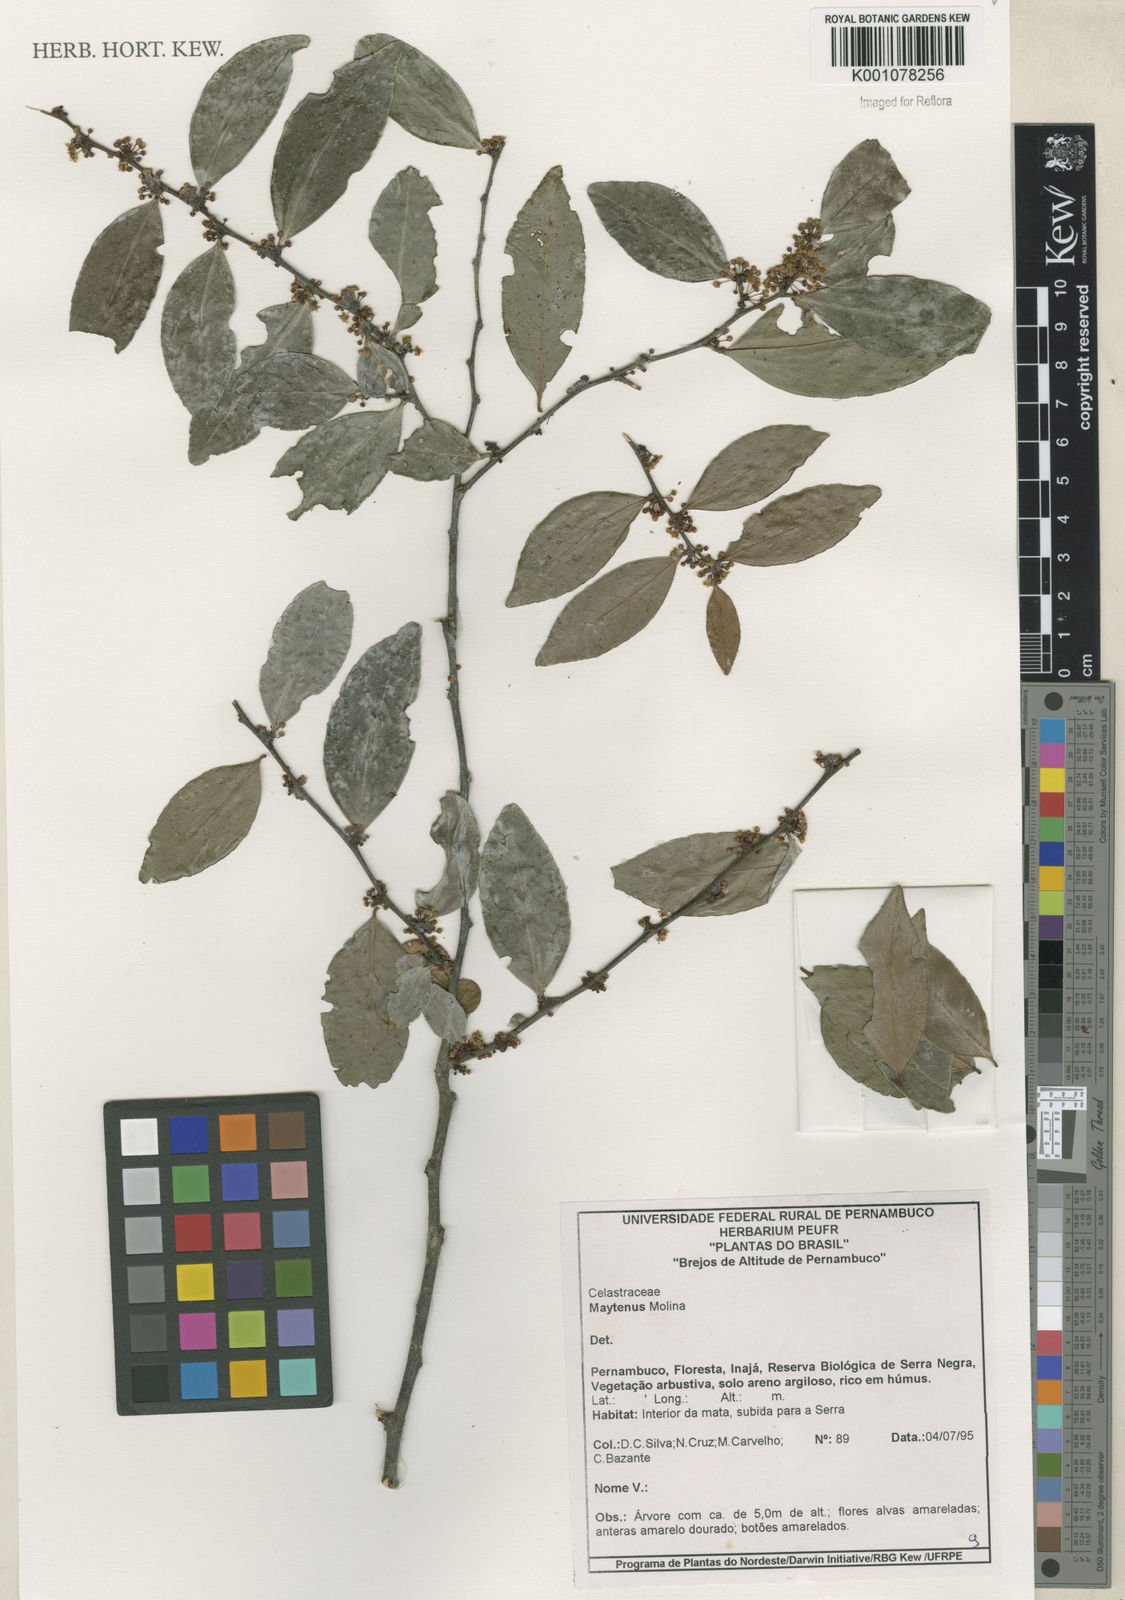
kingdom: Plantae
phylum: Tracheophyta
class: Magnoliopsida
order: Celastrales
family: Celastraceae
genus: Maytenus
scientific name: Maytenus
